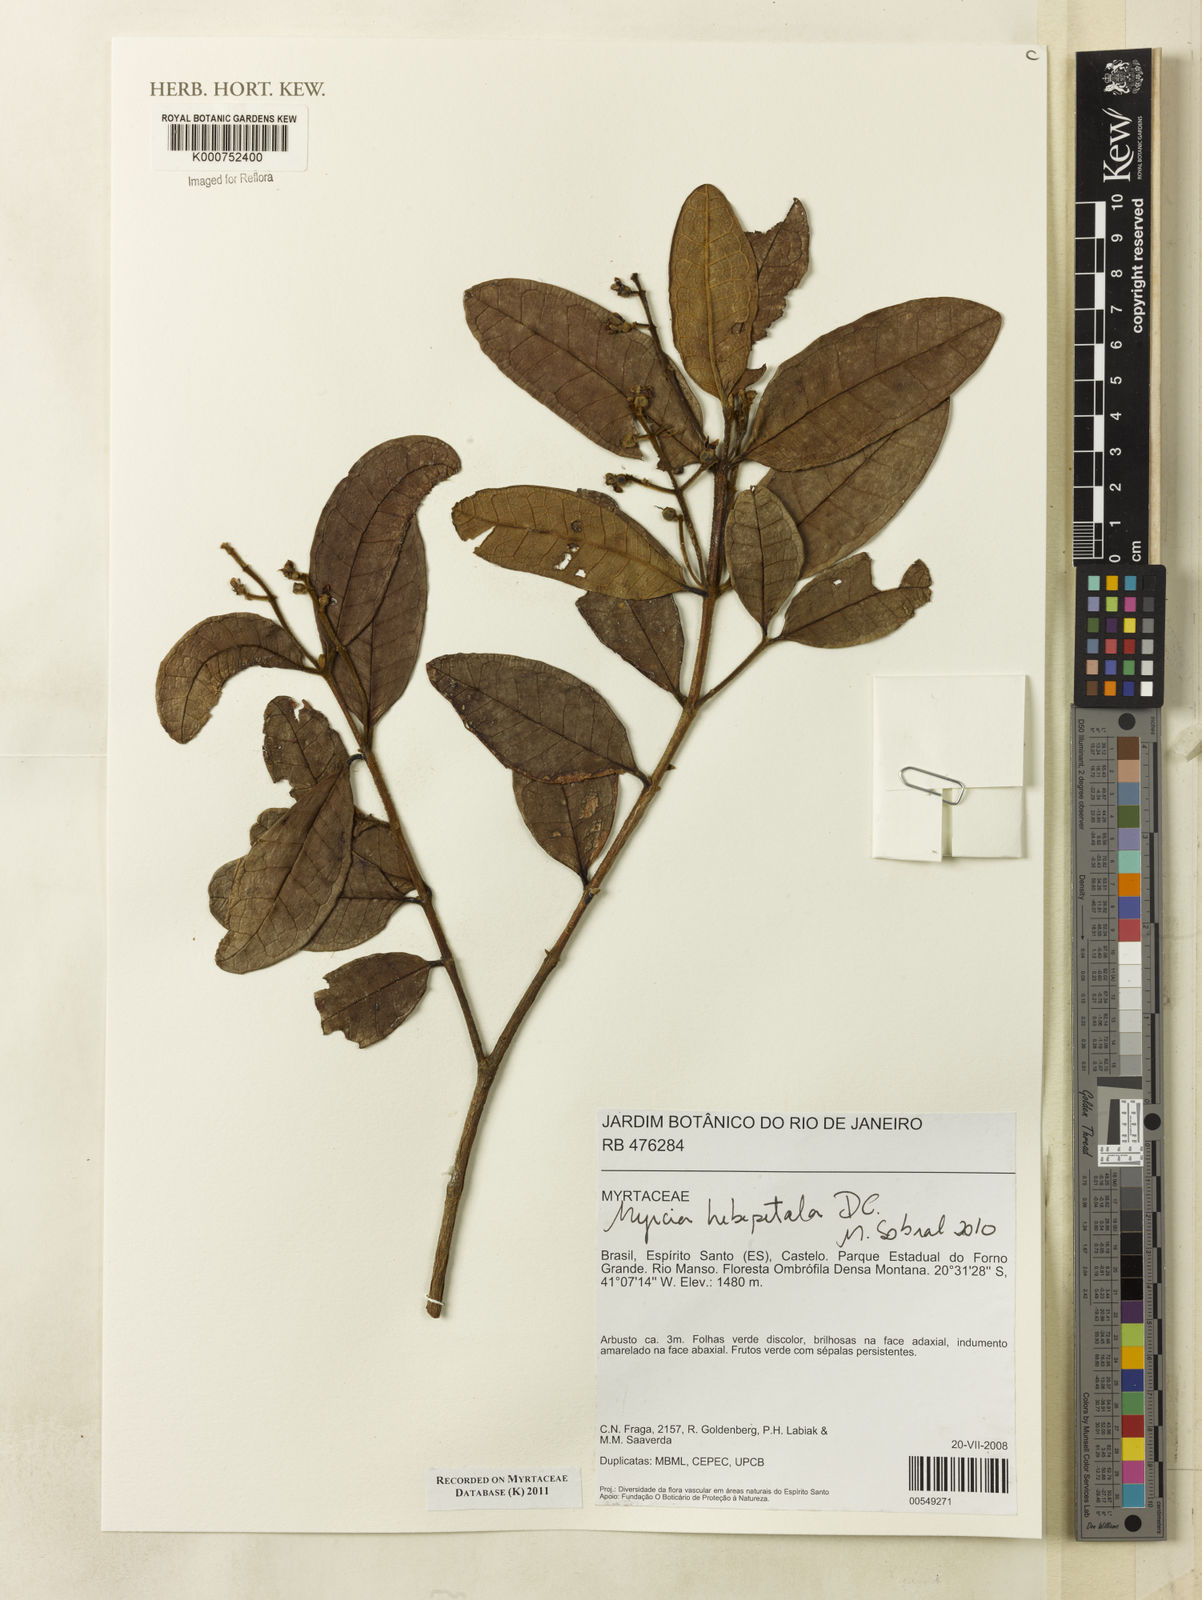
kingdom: Plantae
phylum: Tracheophyta
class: Magnoliopsida
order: Myrtales
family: Myrtaceae
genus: Myrcia
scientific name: Myrcia hebepetala
